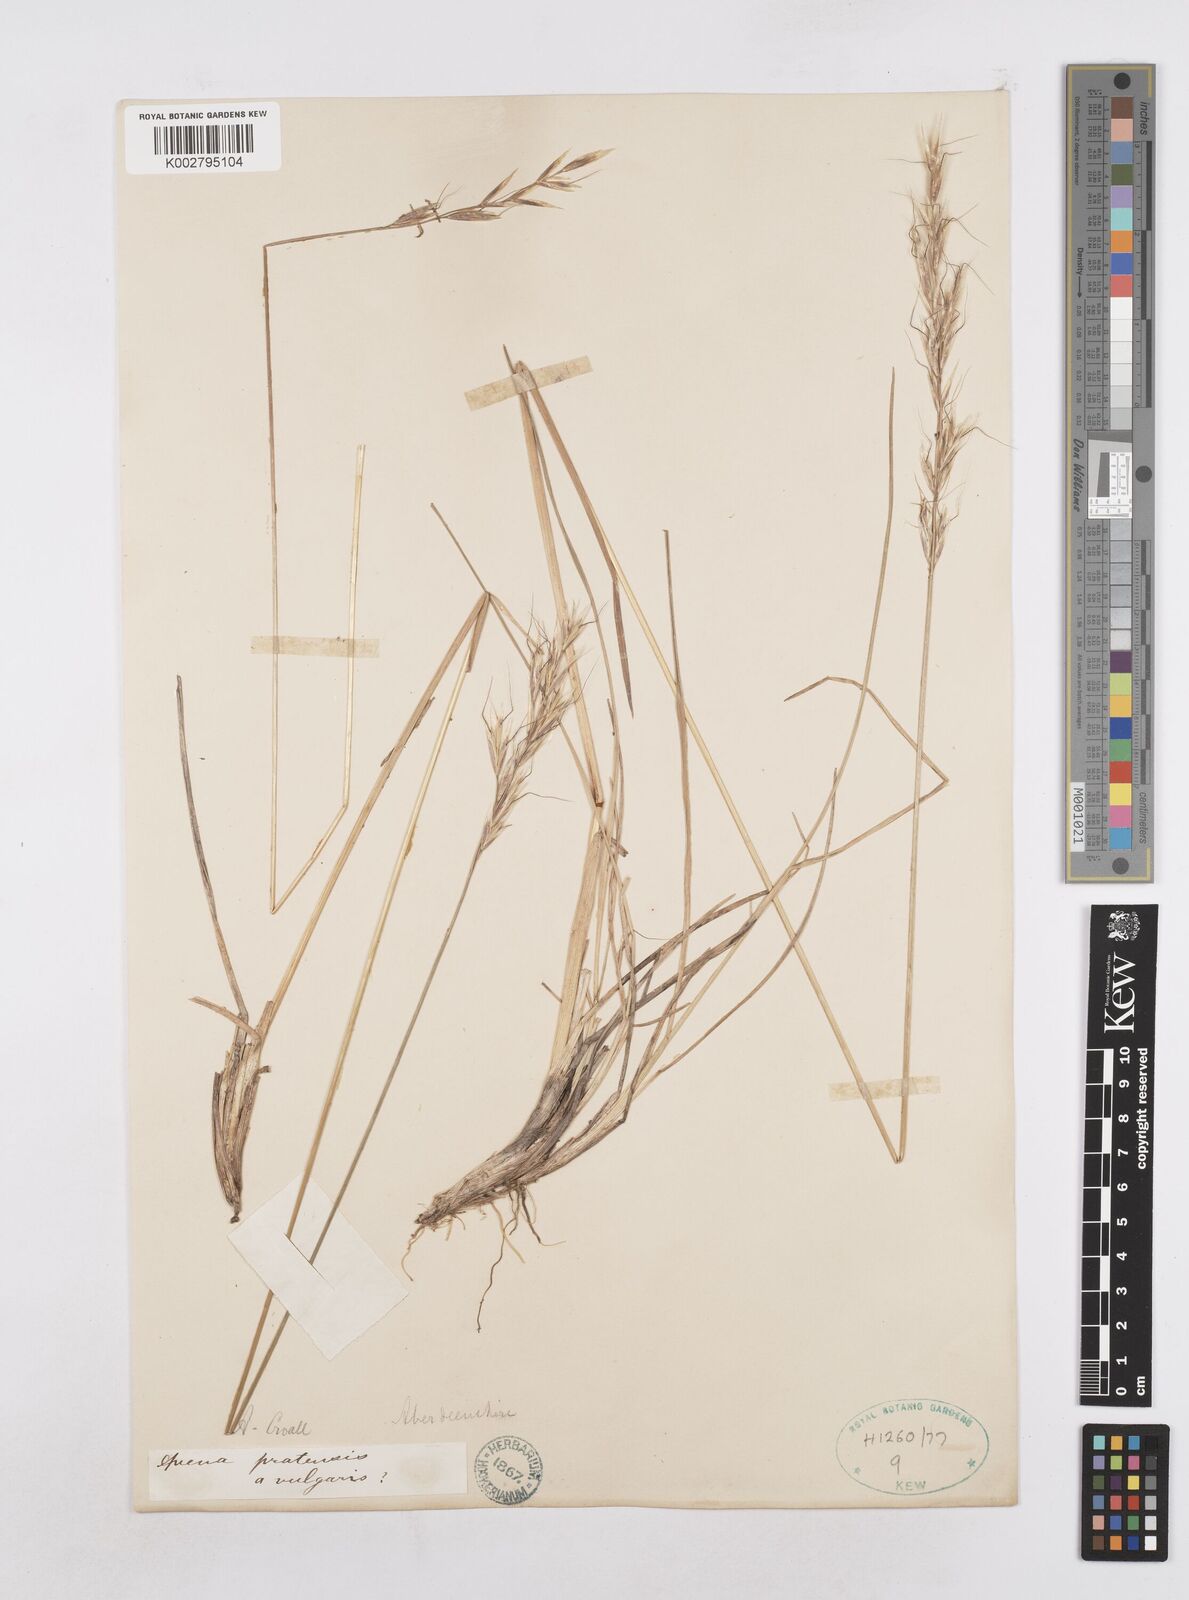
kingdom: Plantae
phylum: Tracheophyta
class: Liliopsida
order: Poales
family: Poaceae
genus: Helictochloa
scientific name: Helictochloa pratensis
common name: Meadow oat grass
